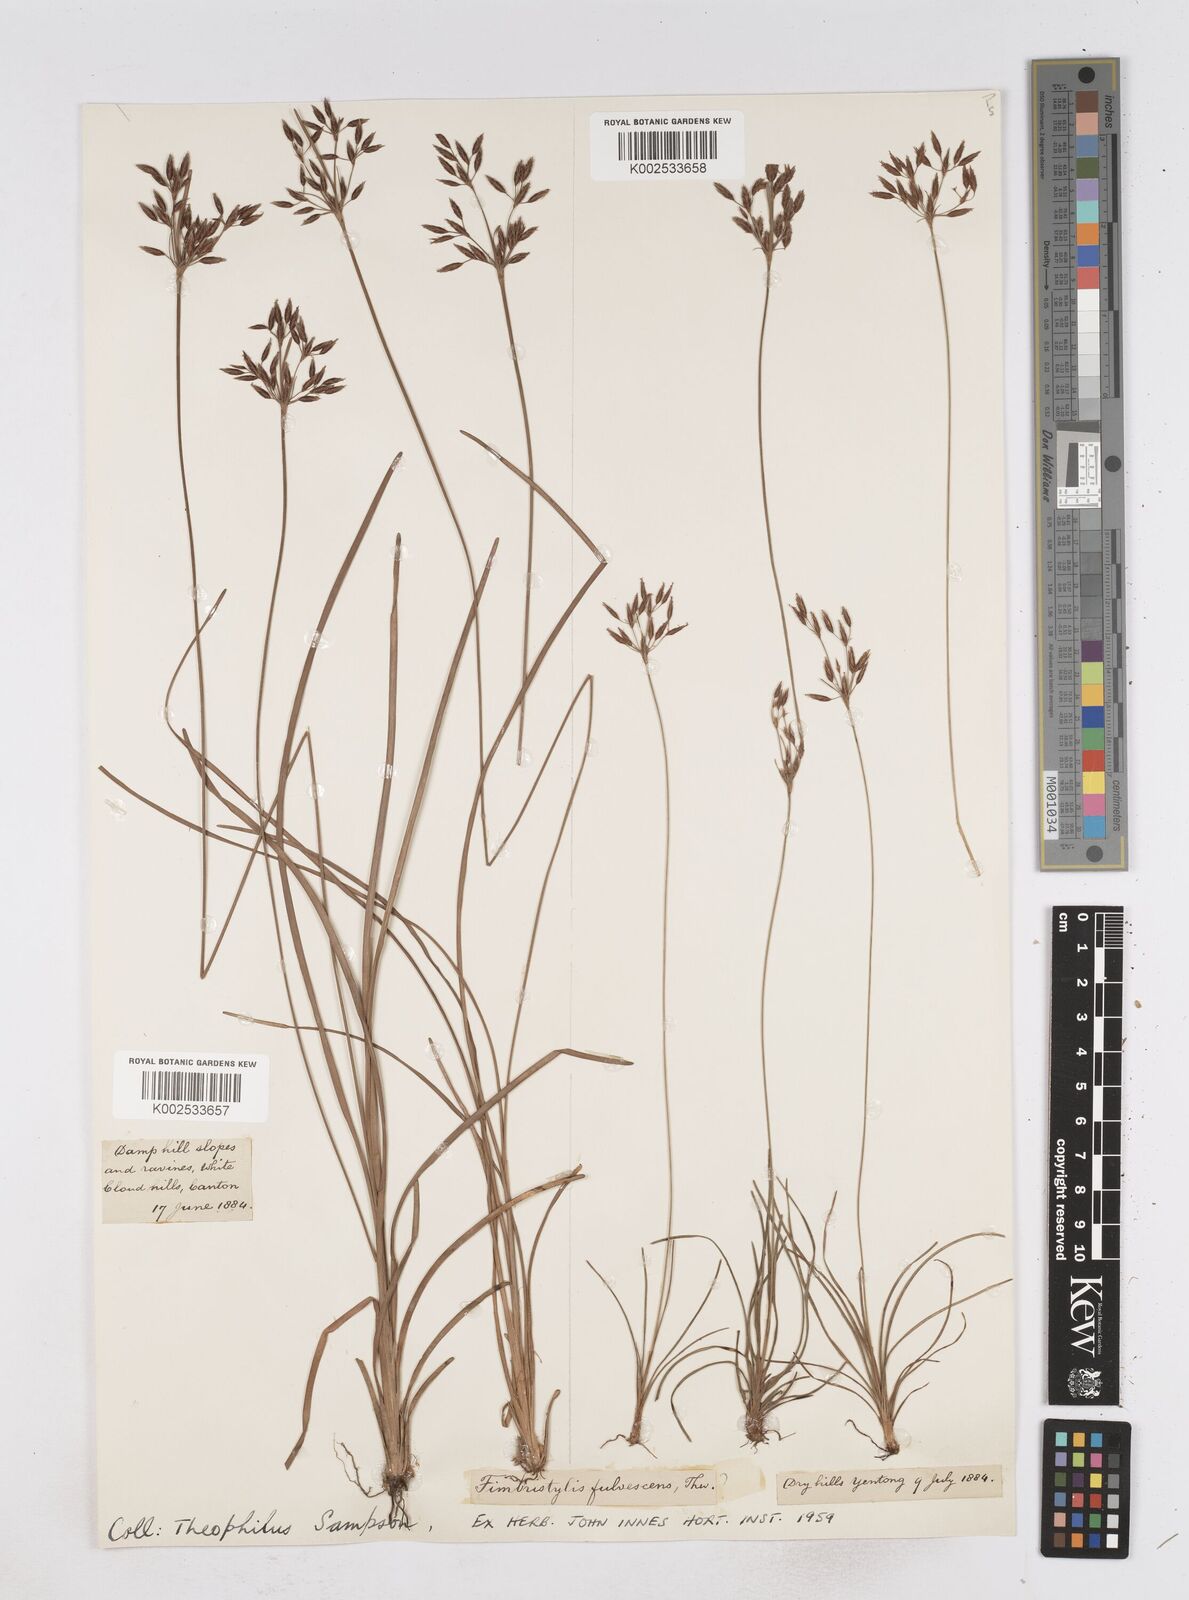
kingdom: Plantae
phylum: Tracheophyta
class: Liliopsida
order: Poales
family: Cyperaceae
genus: Fimbristylis
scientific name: Fimbristylis fusca
